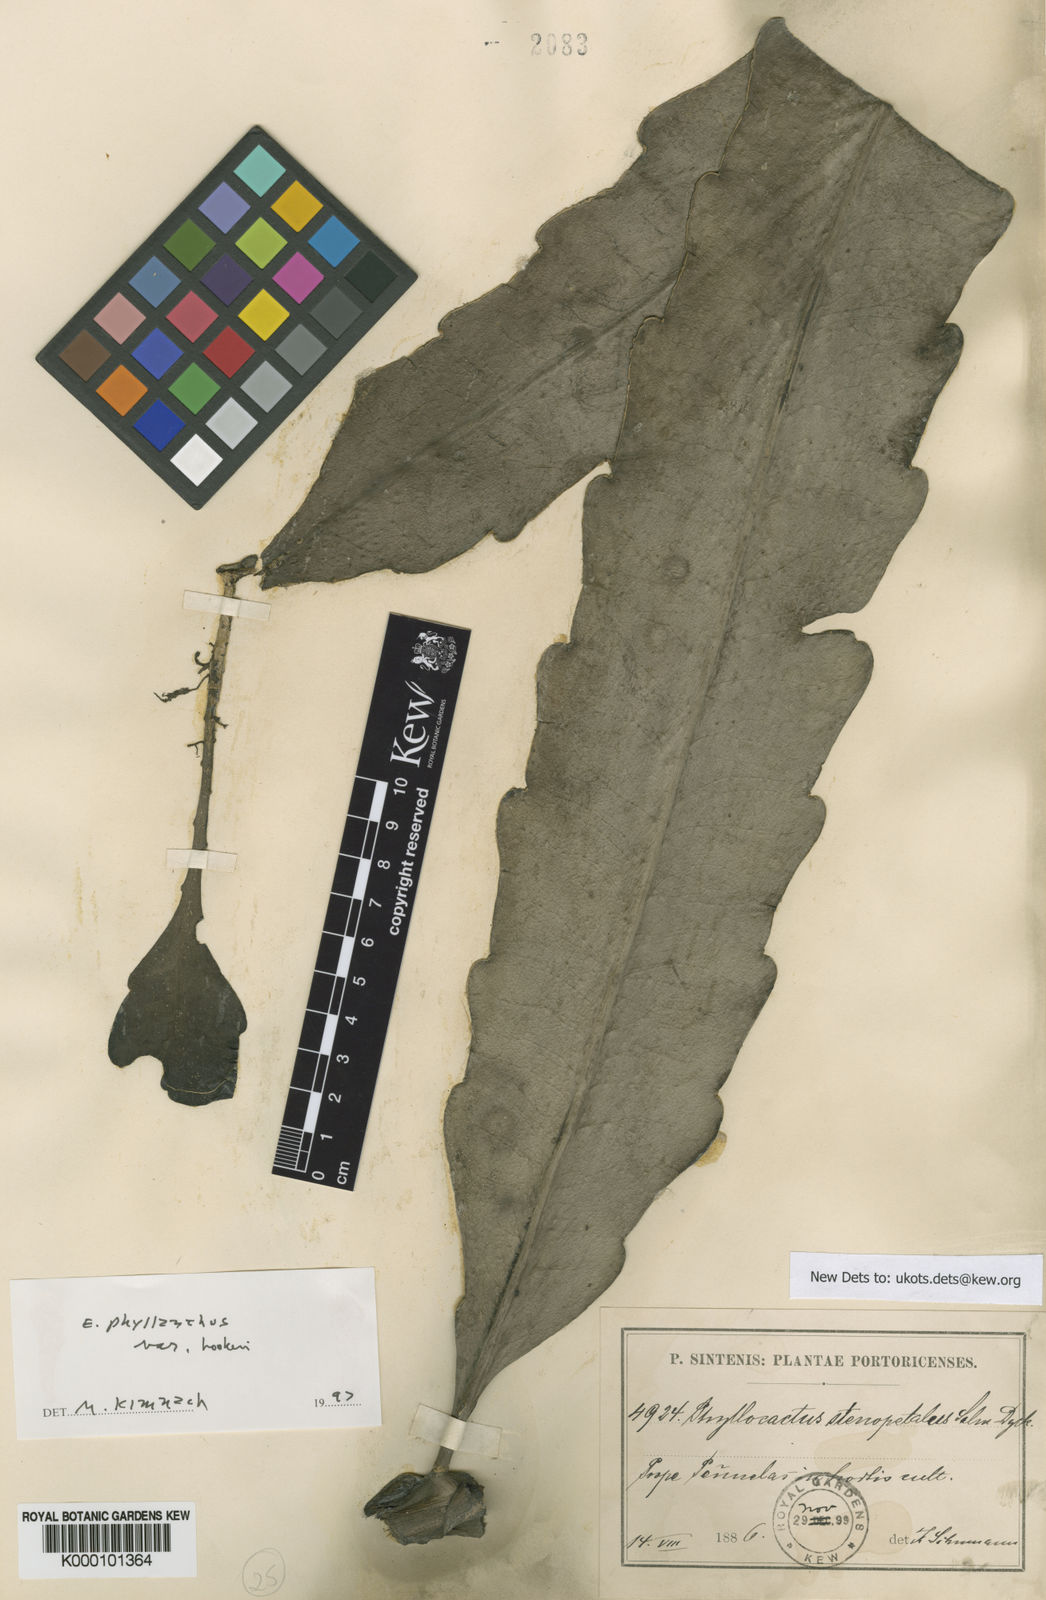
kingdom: Plantae
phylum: Tracheophyta
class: Magnoliopsida
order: Caryophyllales
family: Cactaceae
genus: Epiphyllum
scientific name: Epiphyllum phyllanthus
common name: Climbing cactus
